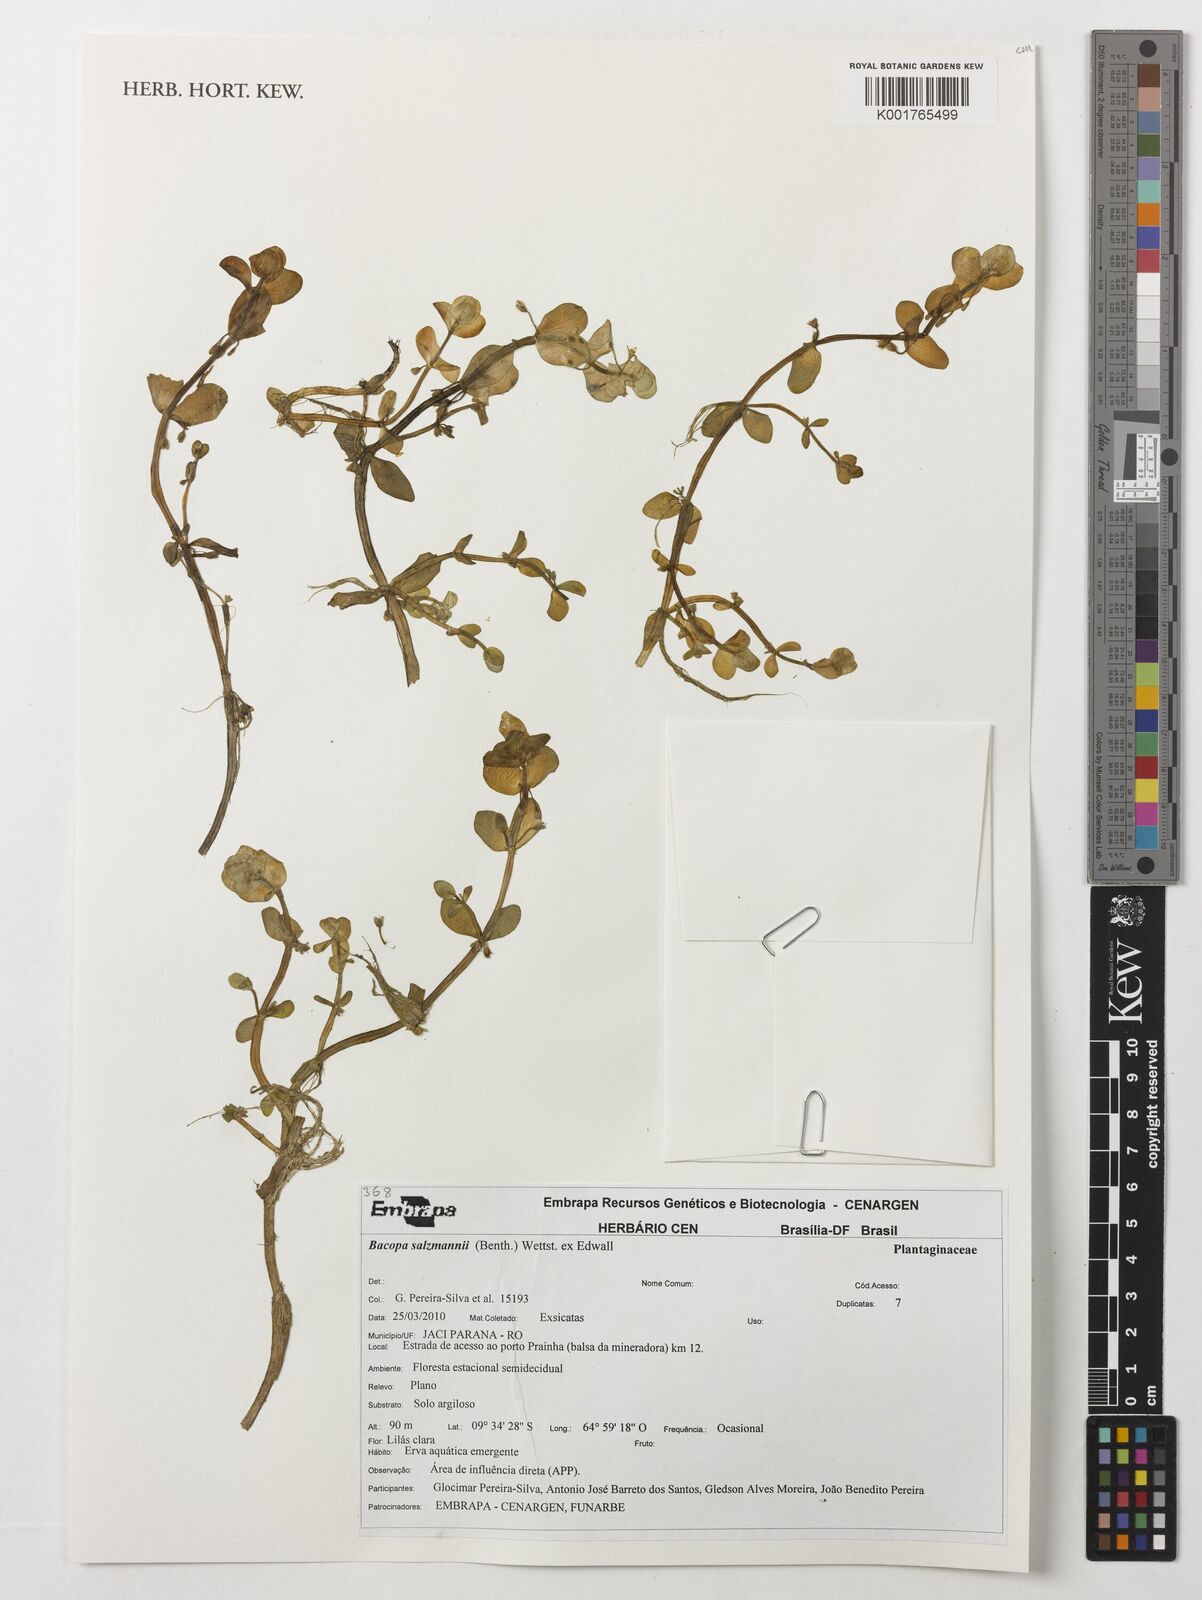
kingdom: Plantae
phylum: Tracheophyta
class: Magnoliopsida
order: Lamiales
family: Plantaginaceae
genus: Bacopa
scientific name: Bacopa salzmannii
